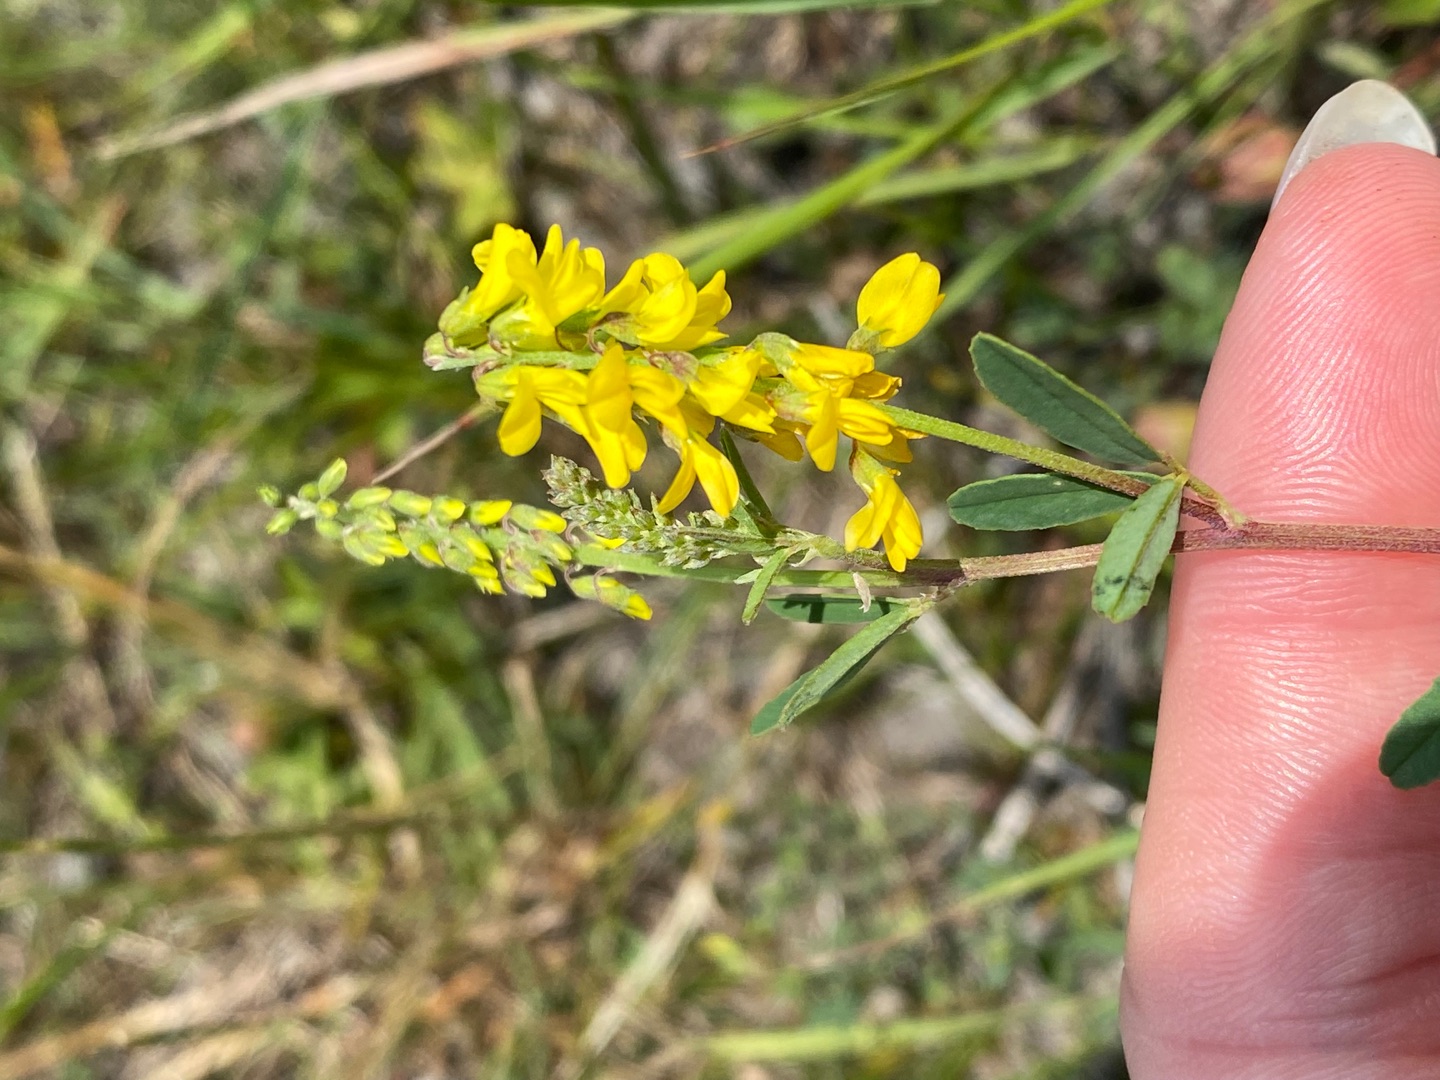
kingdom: Plantae
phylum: Tracheophyta
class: Magnoliopsida
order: Fabales
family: Fabaceae
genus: Melilotus
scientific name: Melilotus altissimus
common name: Høj stenkløver
